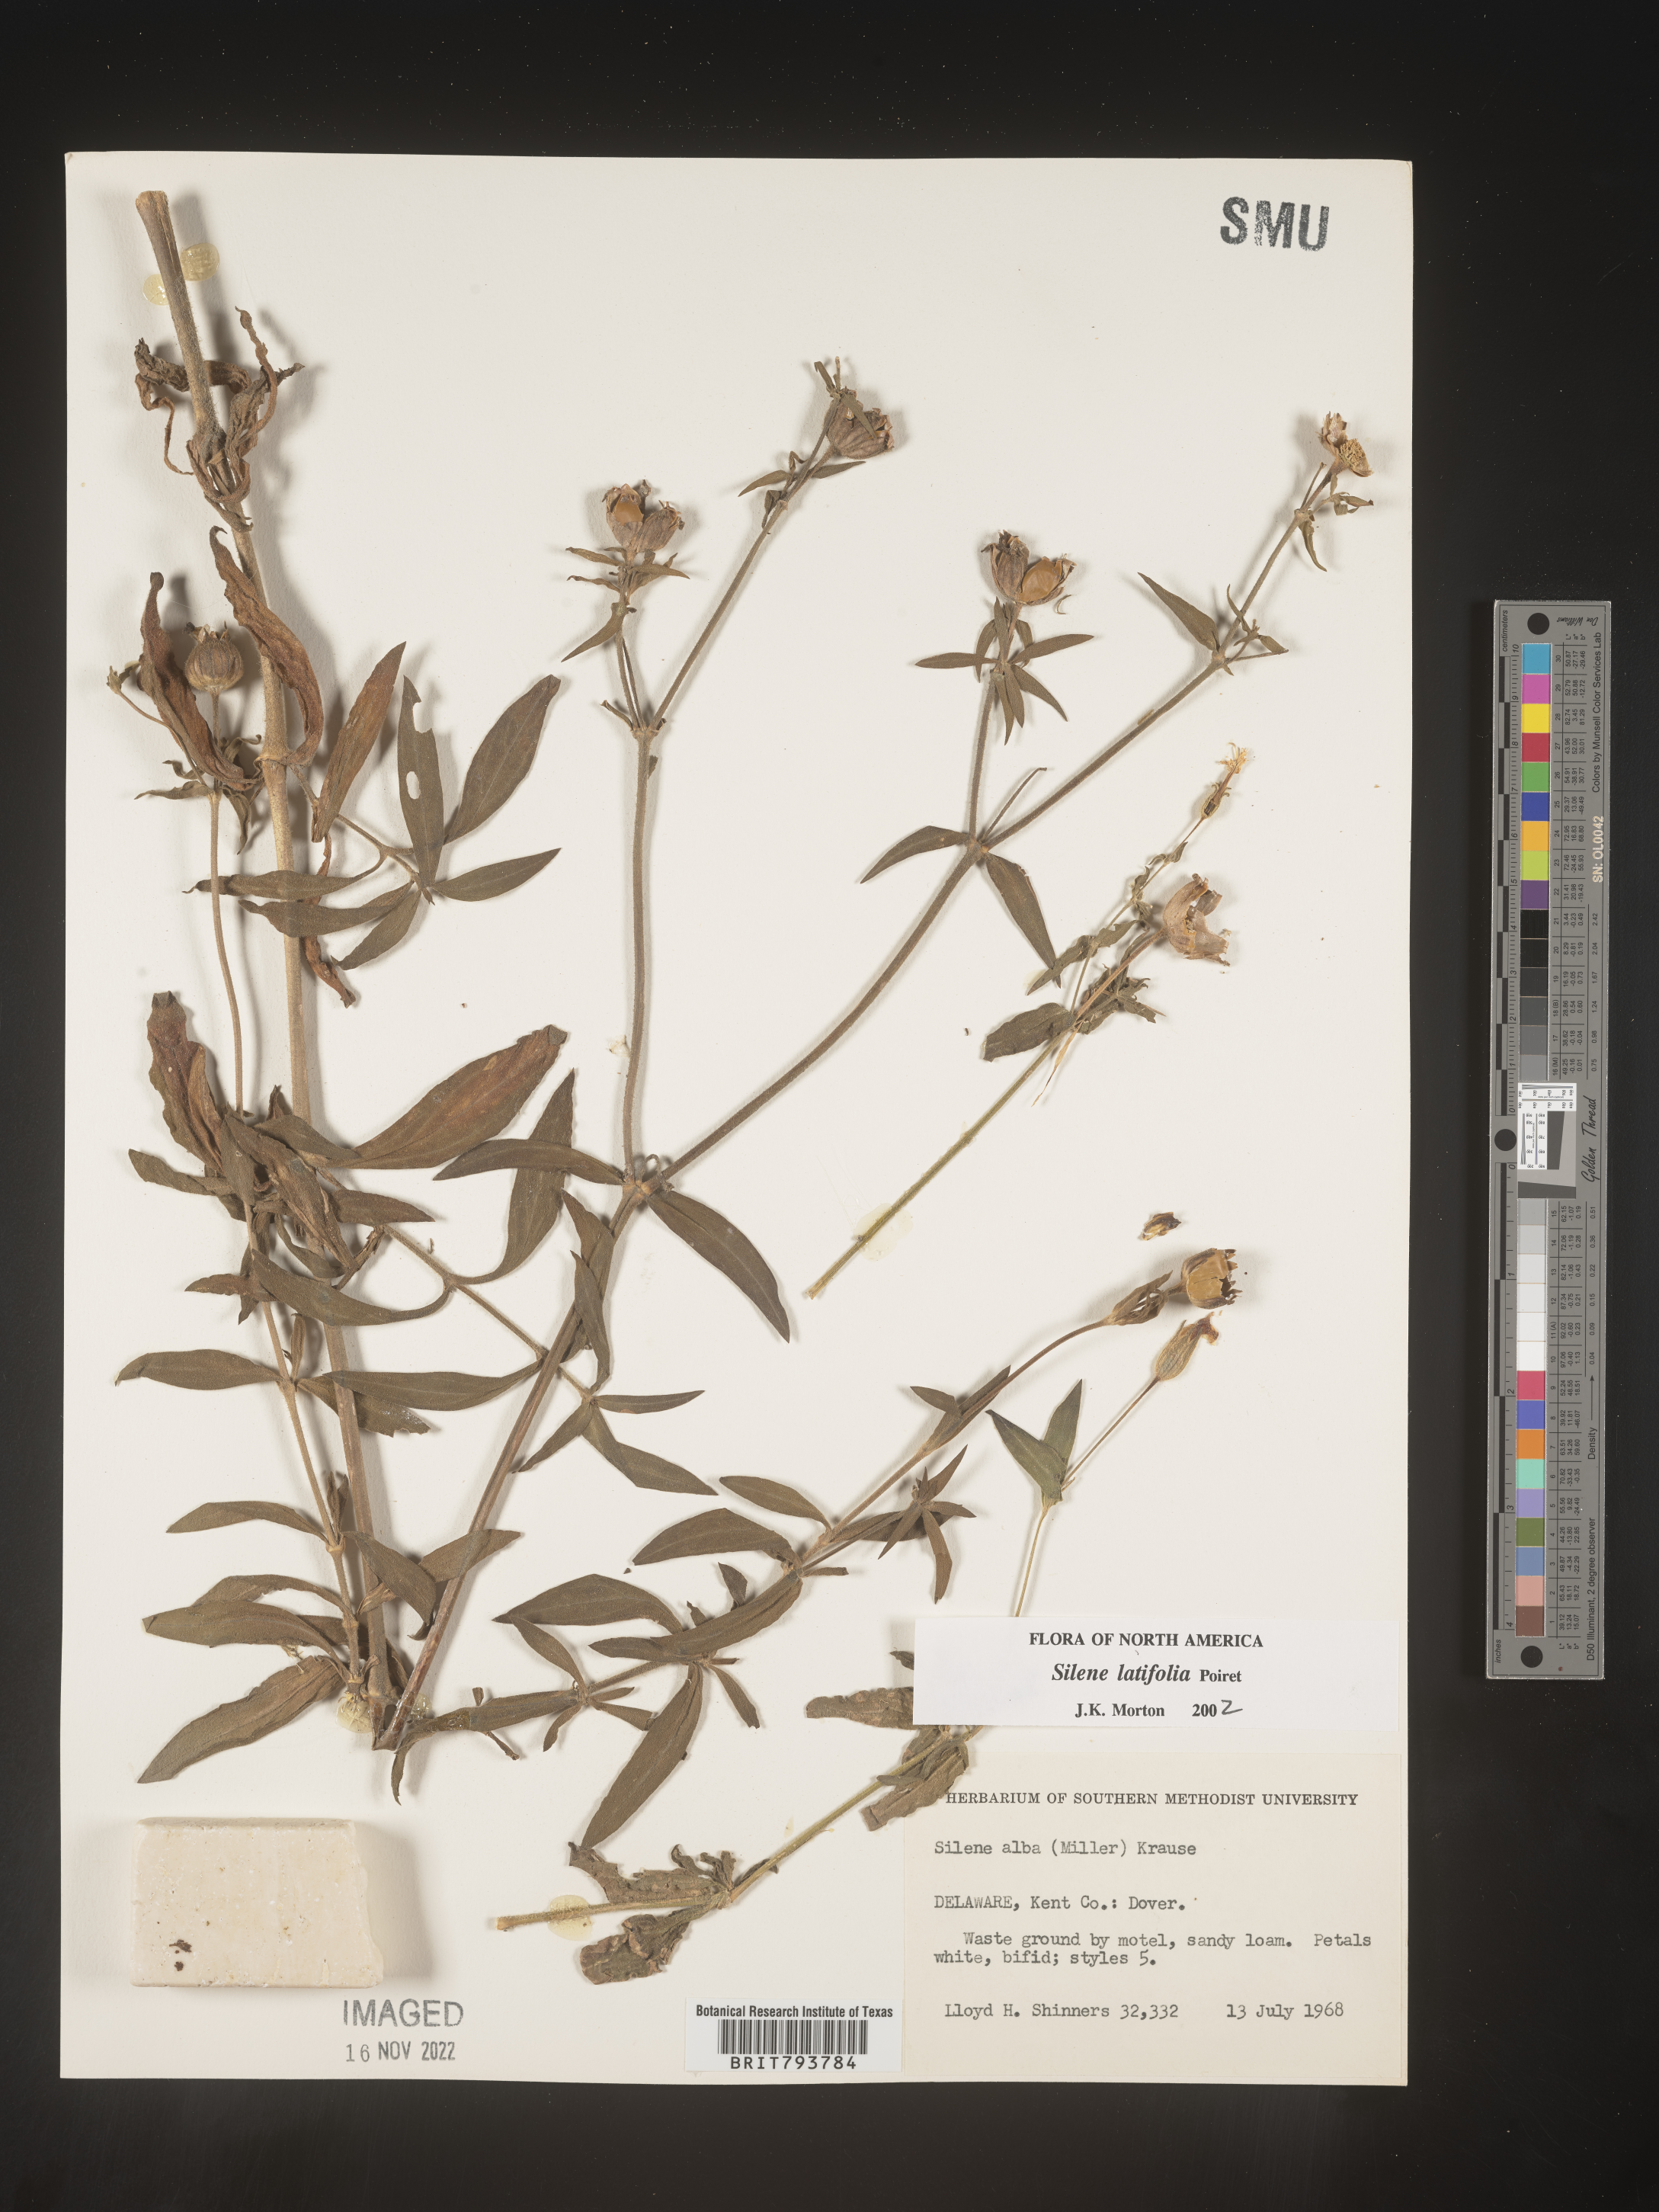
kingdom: Plantae
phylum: Tracheophyta
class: Magnoliopsida
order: Caryophyllales
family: Caryophyllaceae
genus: Silene
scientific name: Silene latifolia
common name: White campion
